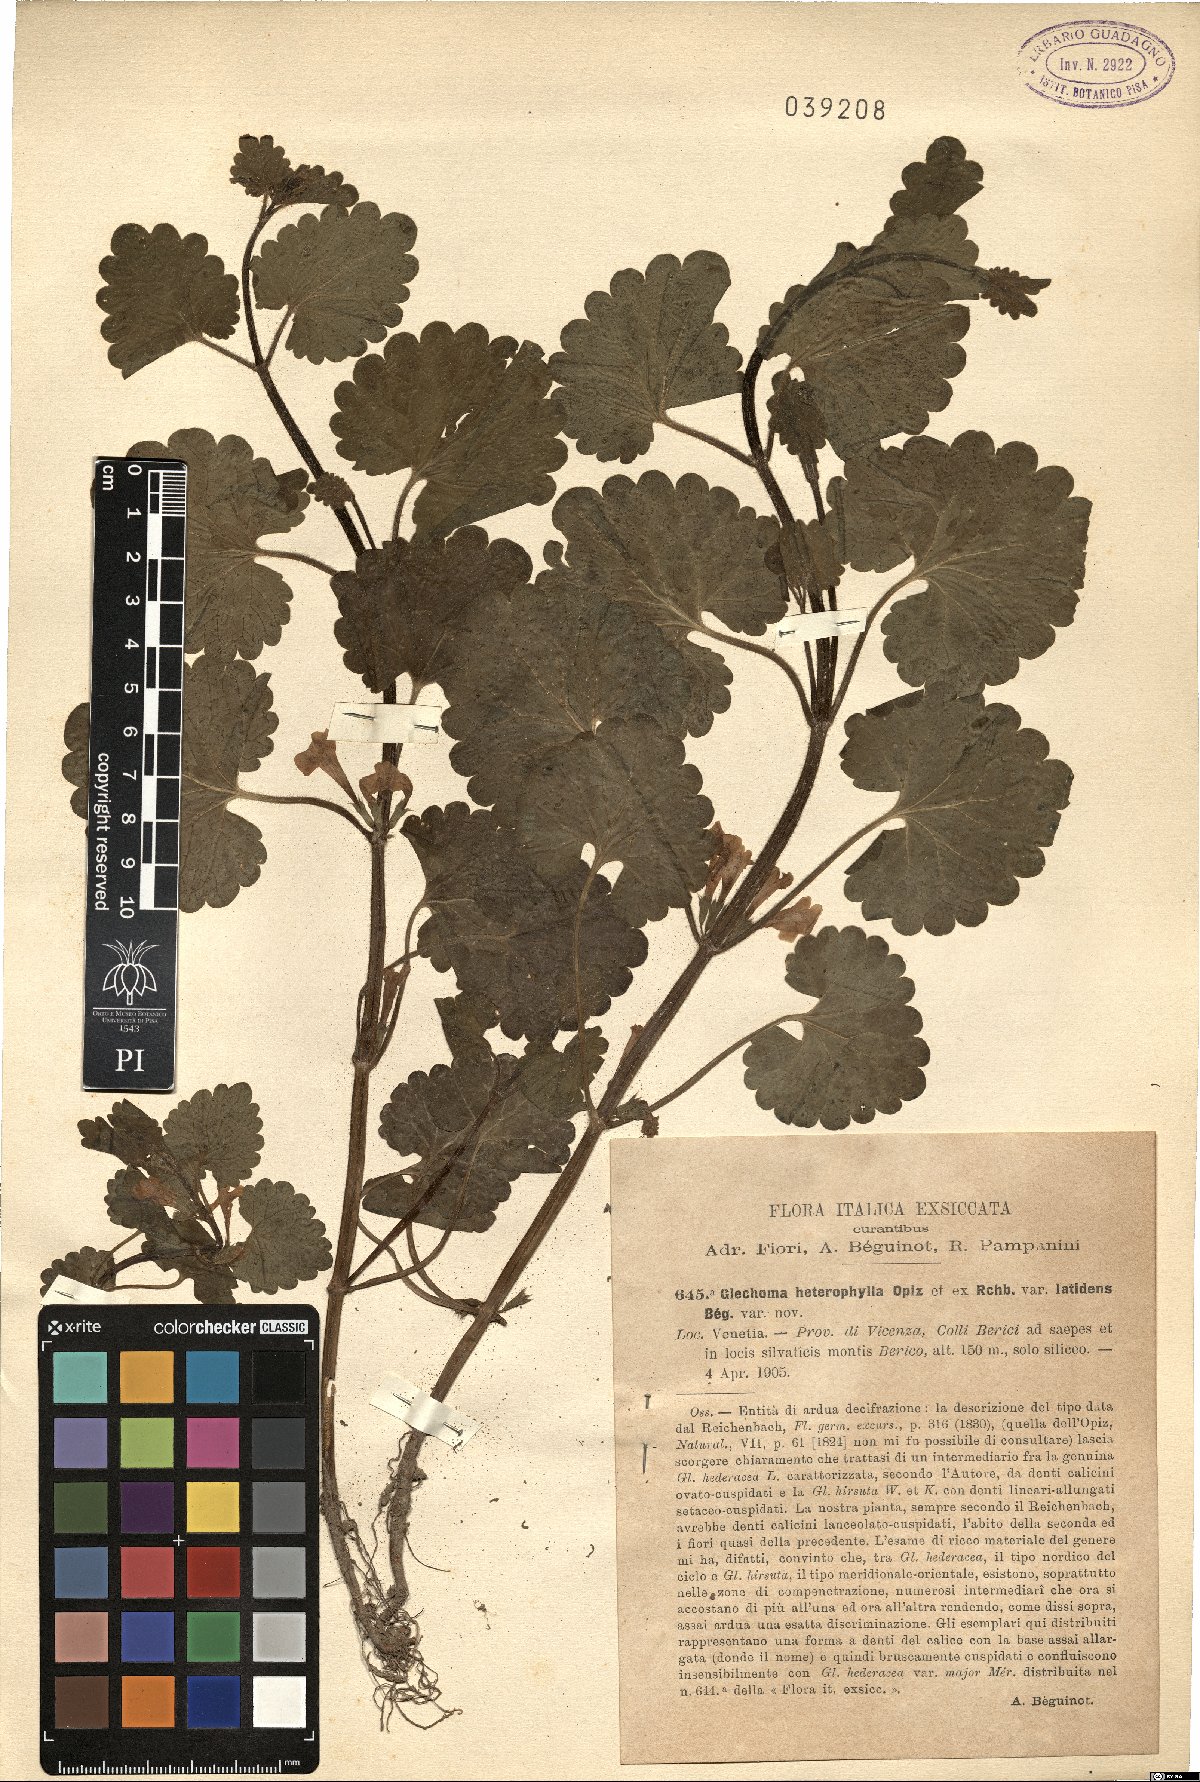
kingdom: Plantae
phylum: Tracheophyta
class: Magnoliopsida
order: Lamiales
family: Lamiaceae
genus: Glechoma
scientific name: Glechoma hederacea
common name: Ground ivy
